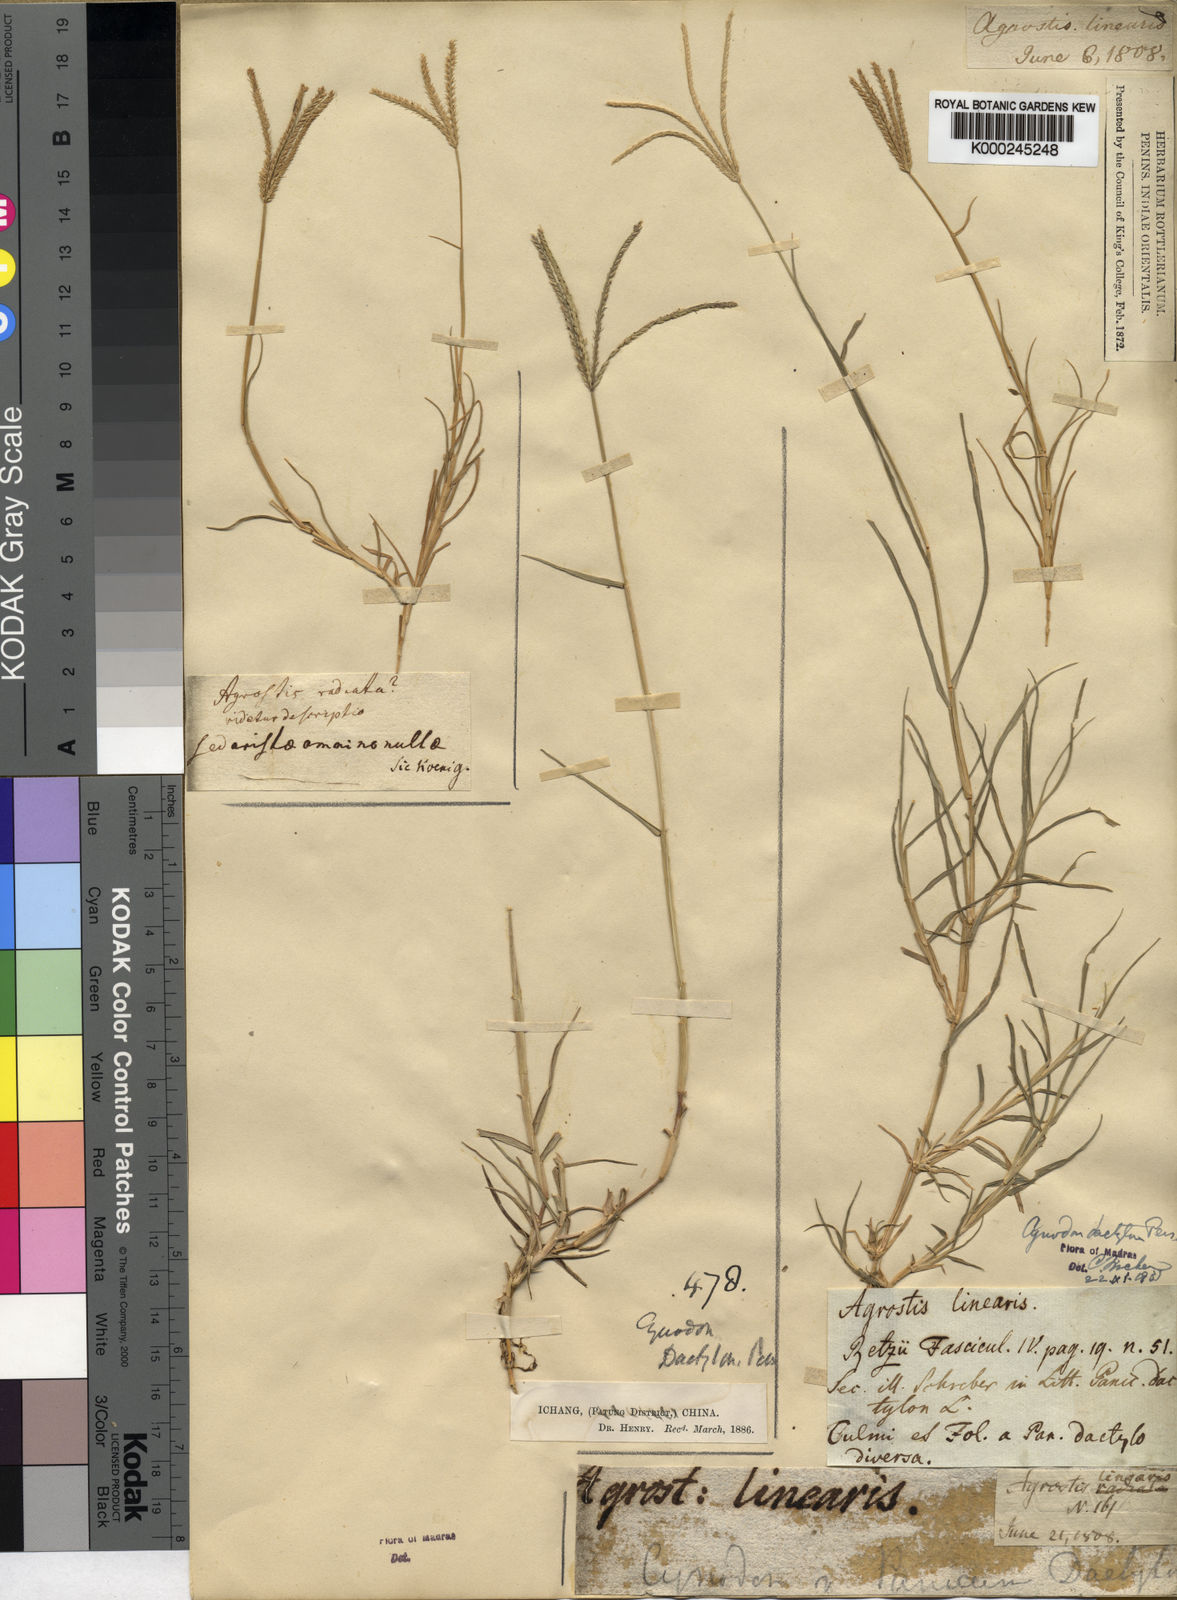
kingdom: Plantae
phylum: Tracheophyta
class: Liliopsida
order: Poales
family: Poaceae
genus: Cynodon
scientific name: Cynodon dactylon
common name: Bermuda grass
